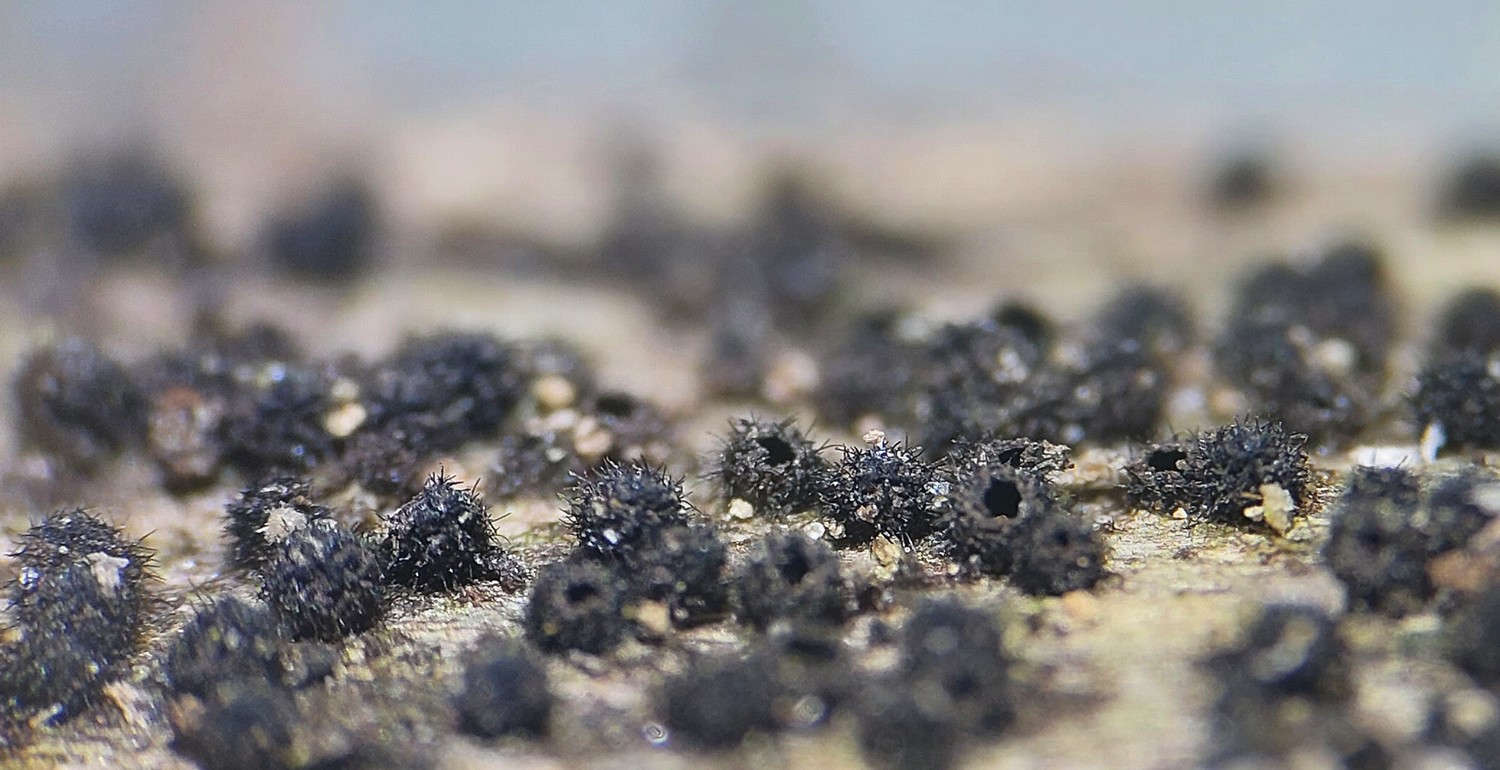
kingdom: Fungi
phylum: Ascomycota
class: Sordariomycetes
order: Sordariales
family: Lasiosphaeriaceae
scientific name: Lasiosphaeriaceae
